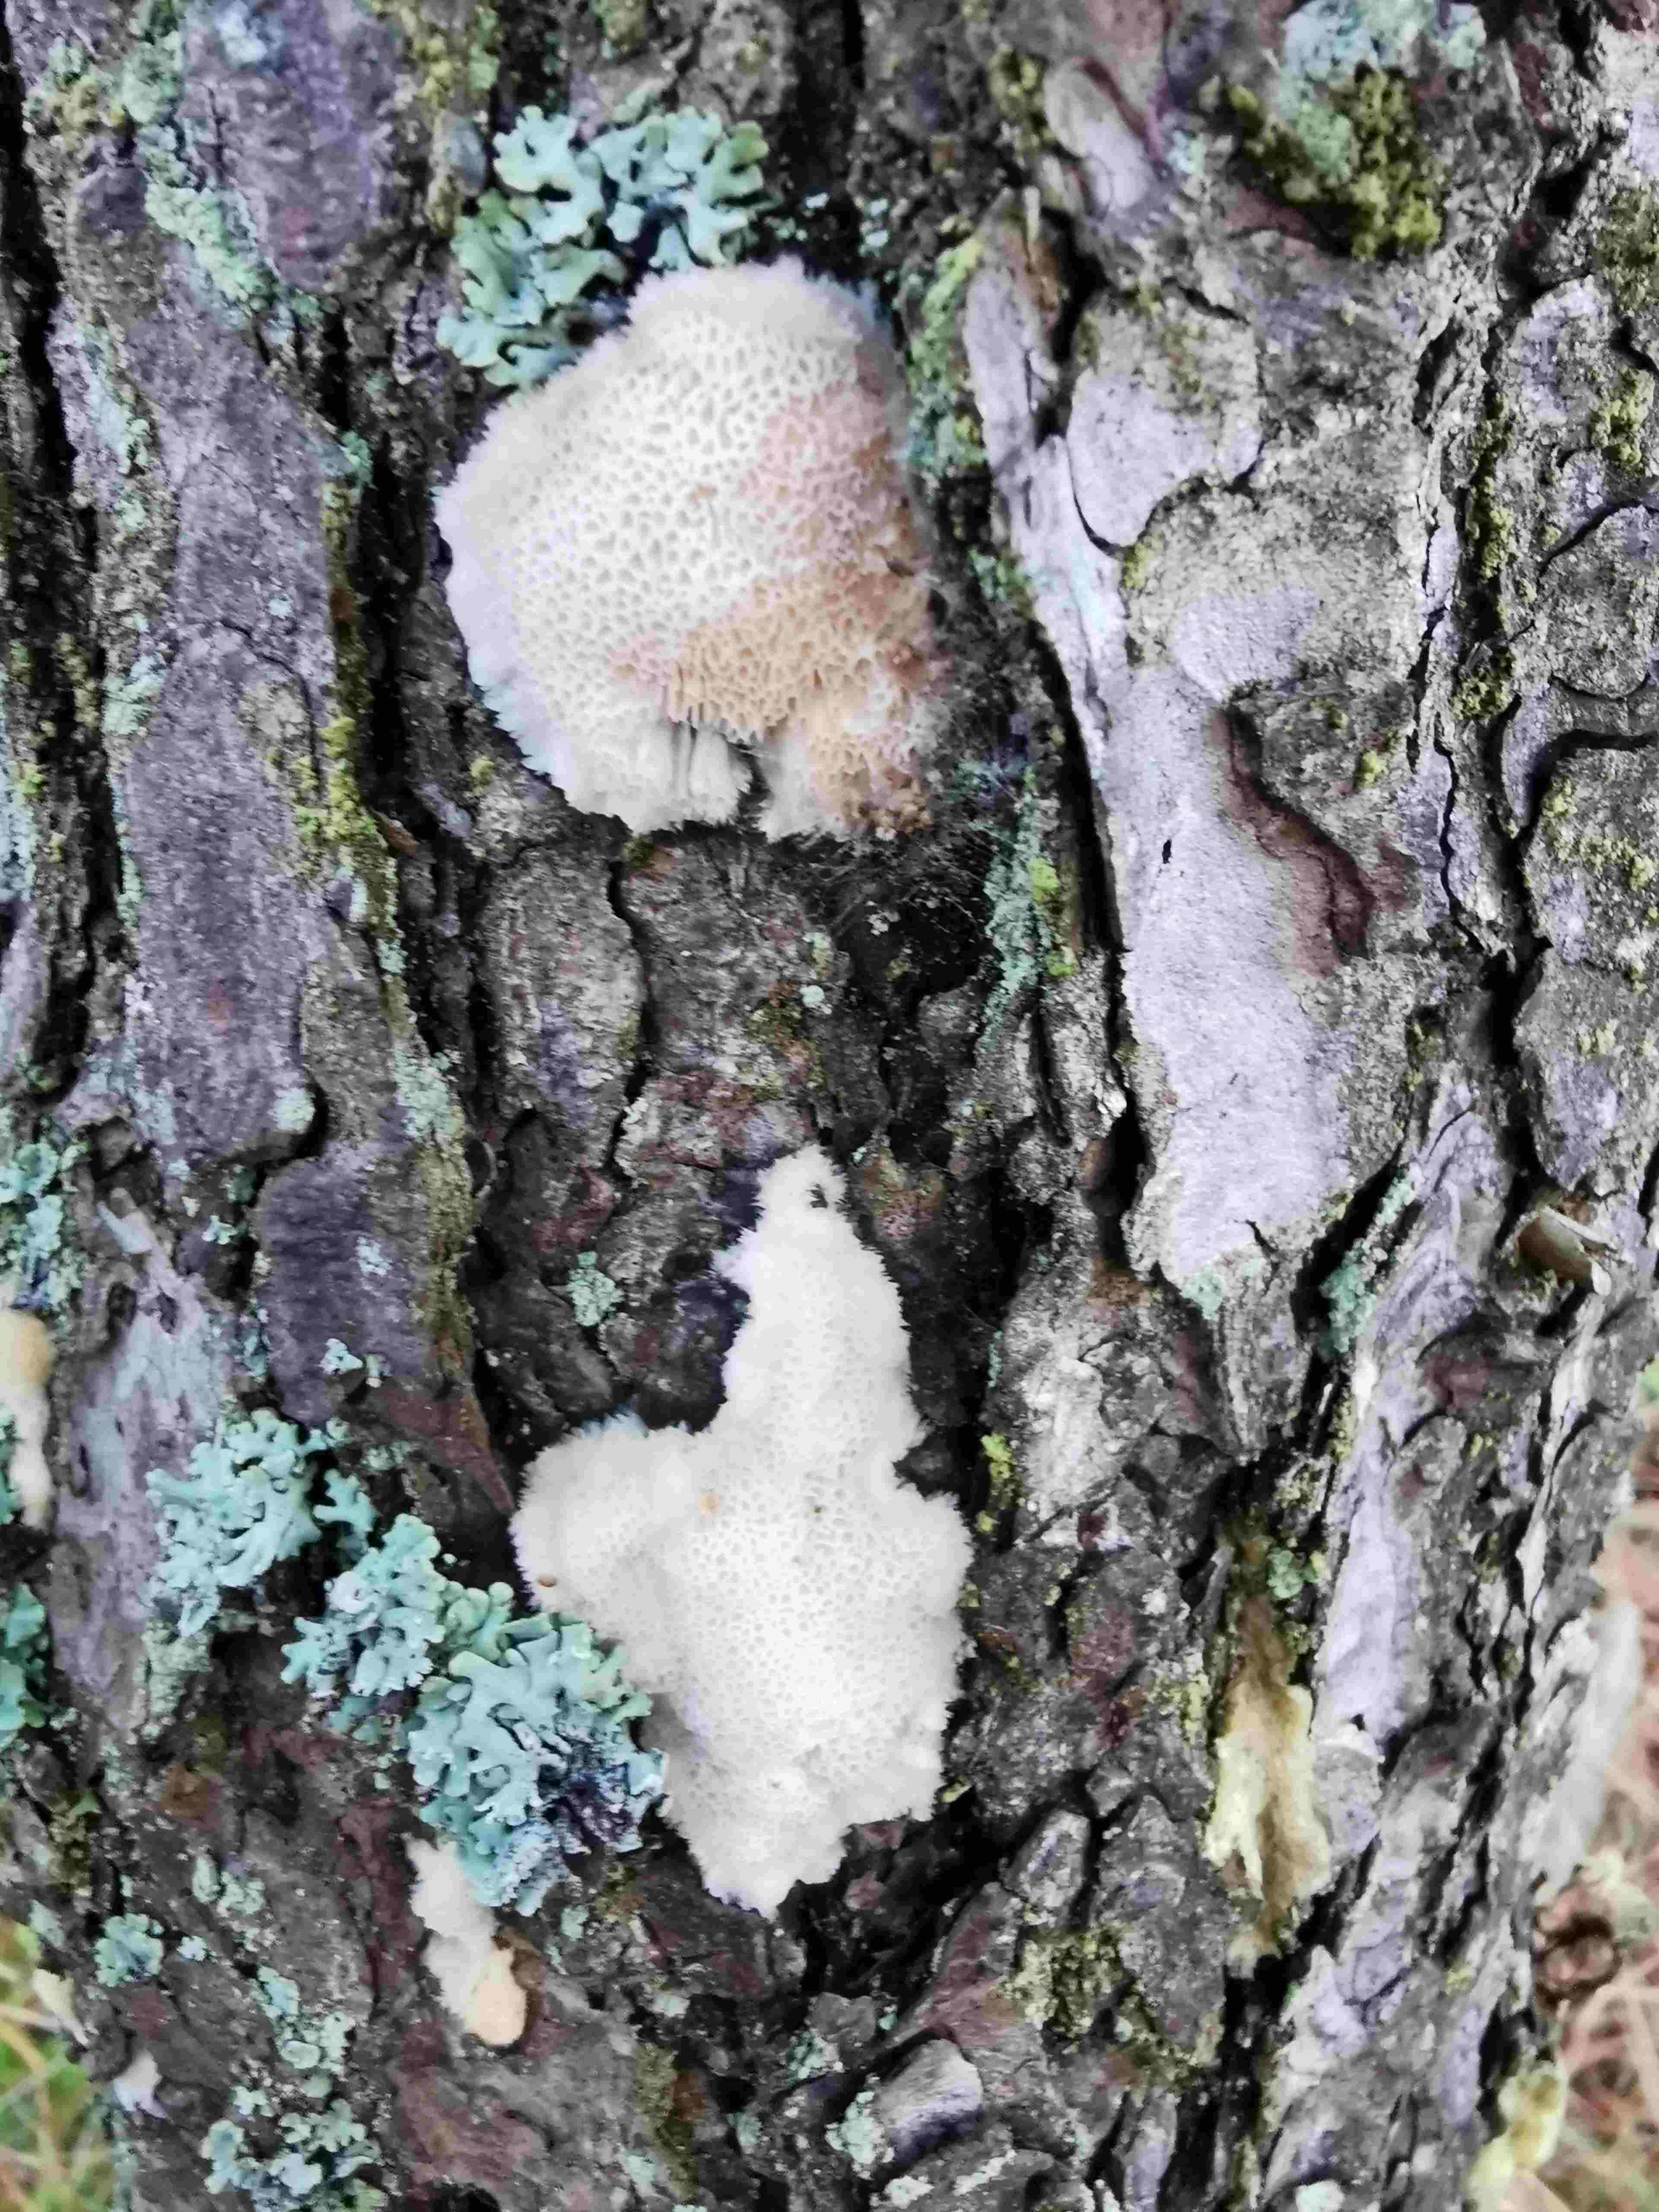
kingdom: Fungi
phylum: Basidiomycota
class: Agaricomycetes
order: Polyporales
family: Polyporaceae
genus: Diplomitoporus
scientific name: Diplomitoporus flavescens
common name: fyrre-elastikporesvamp
